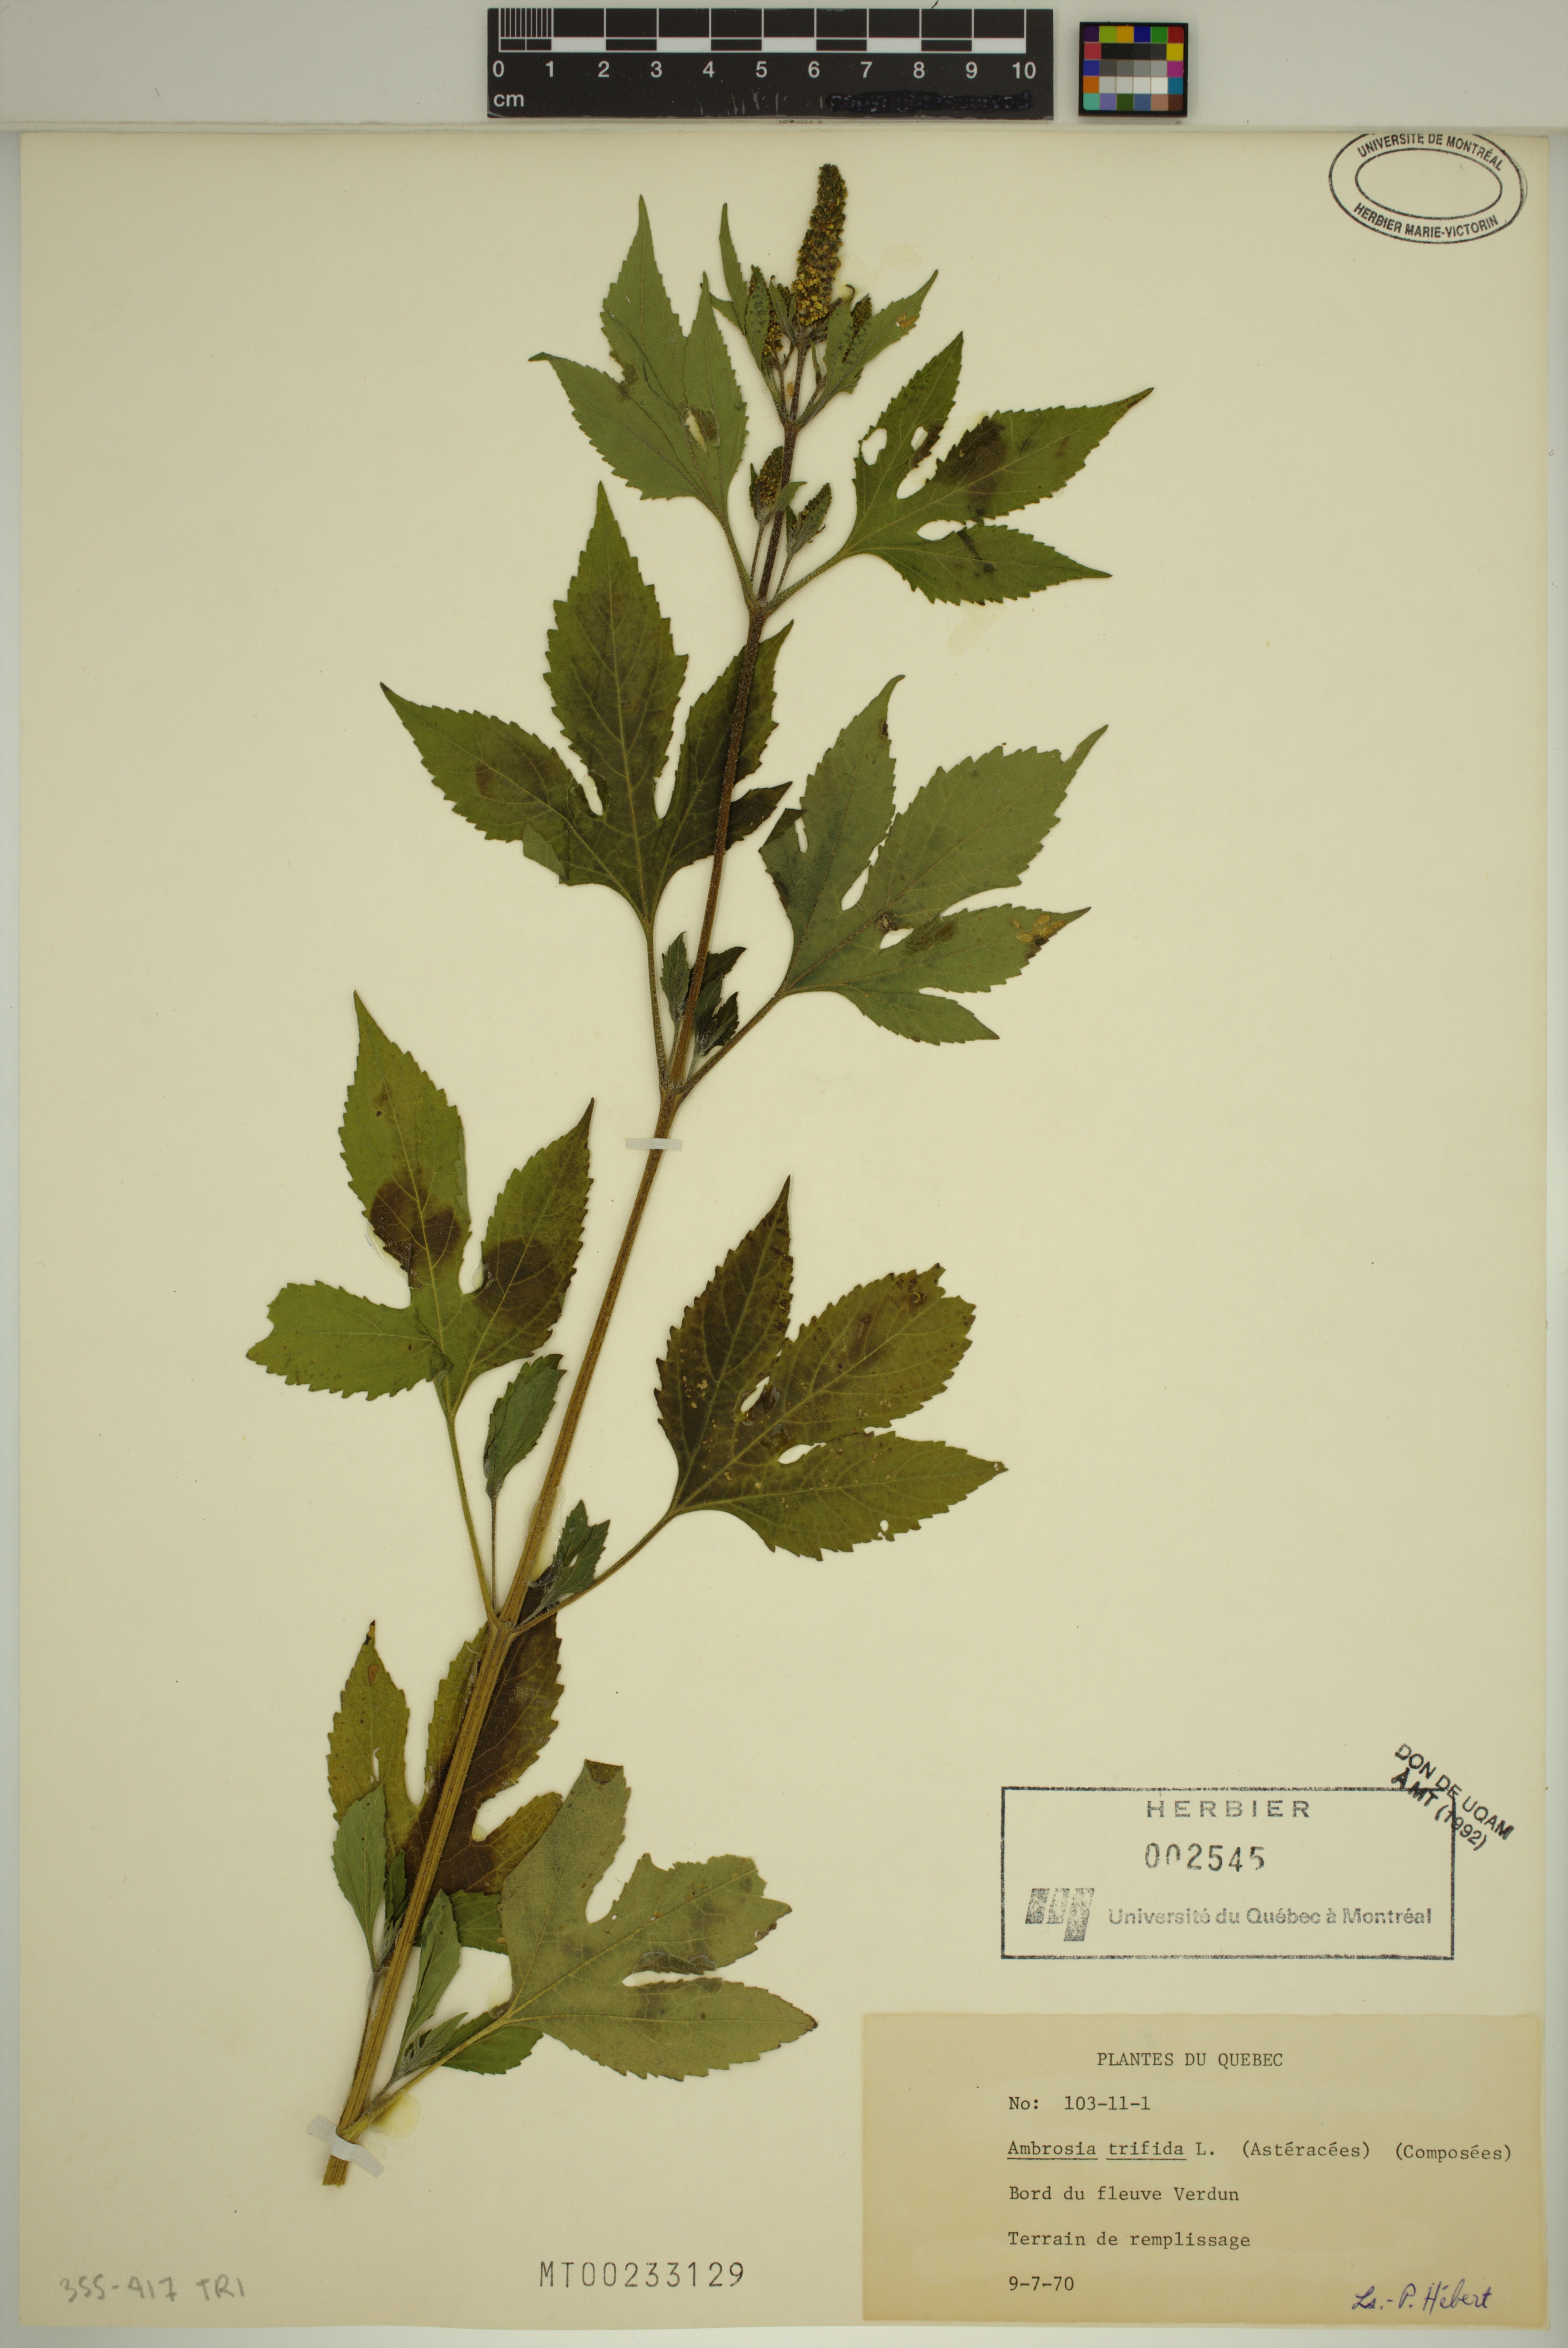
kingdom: Plantae
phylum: Tracheophyta
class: Magnoliopsida
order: Asterales
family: Asteraceae
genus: Ambrosia
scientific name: Ambrosia trifida
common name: Giant ragweed
